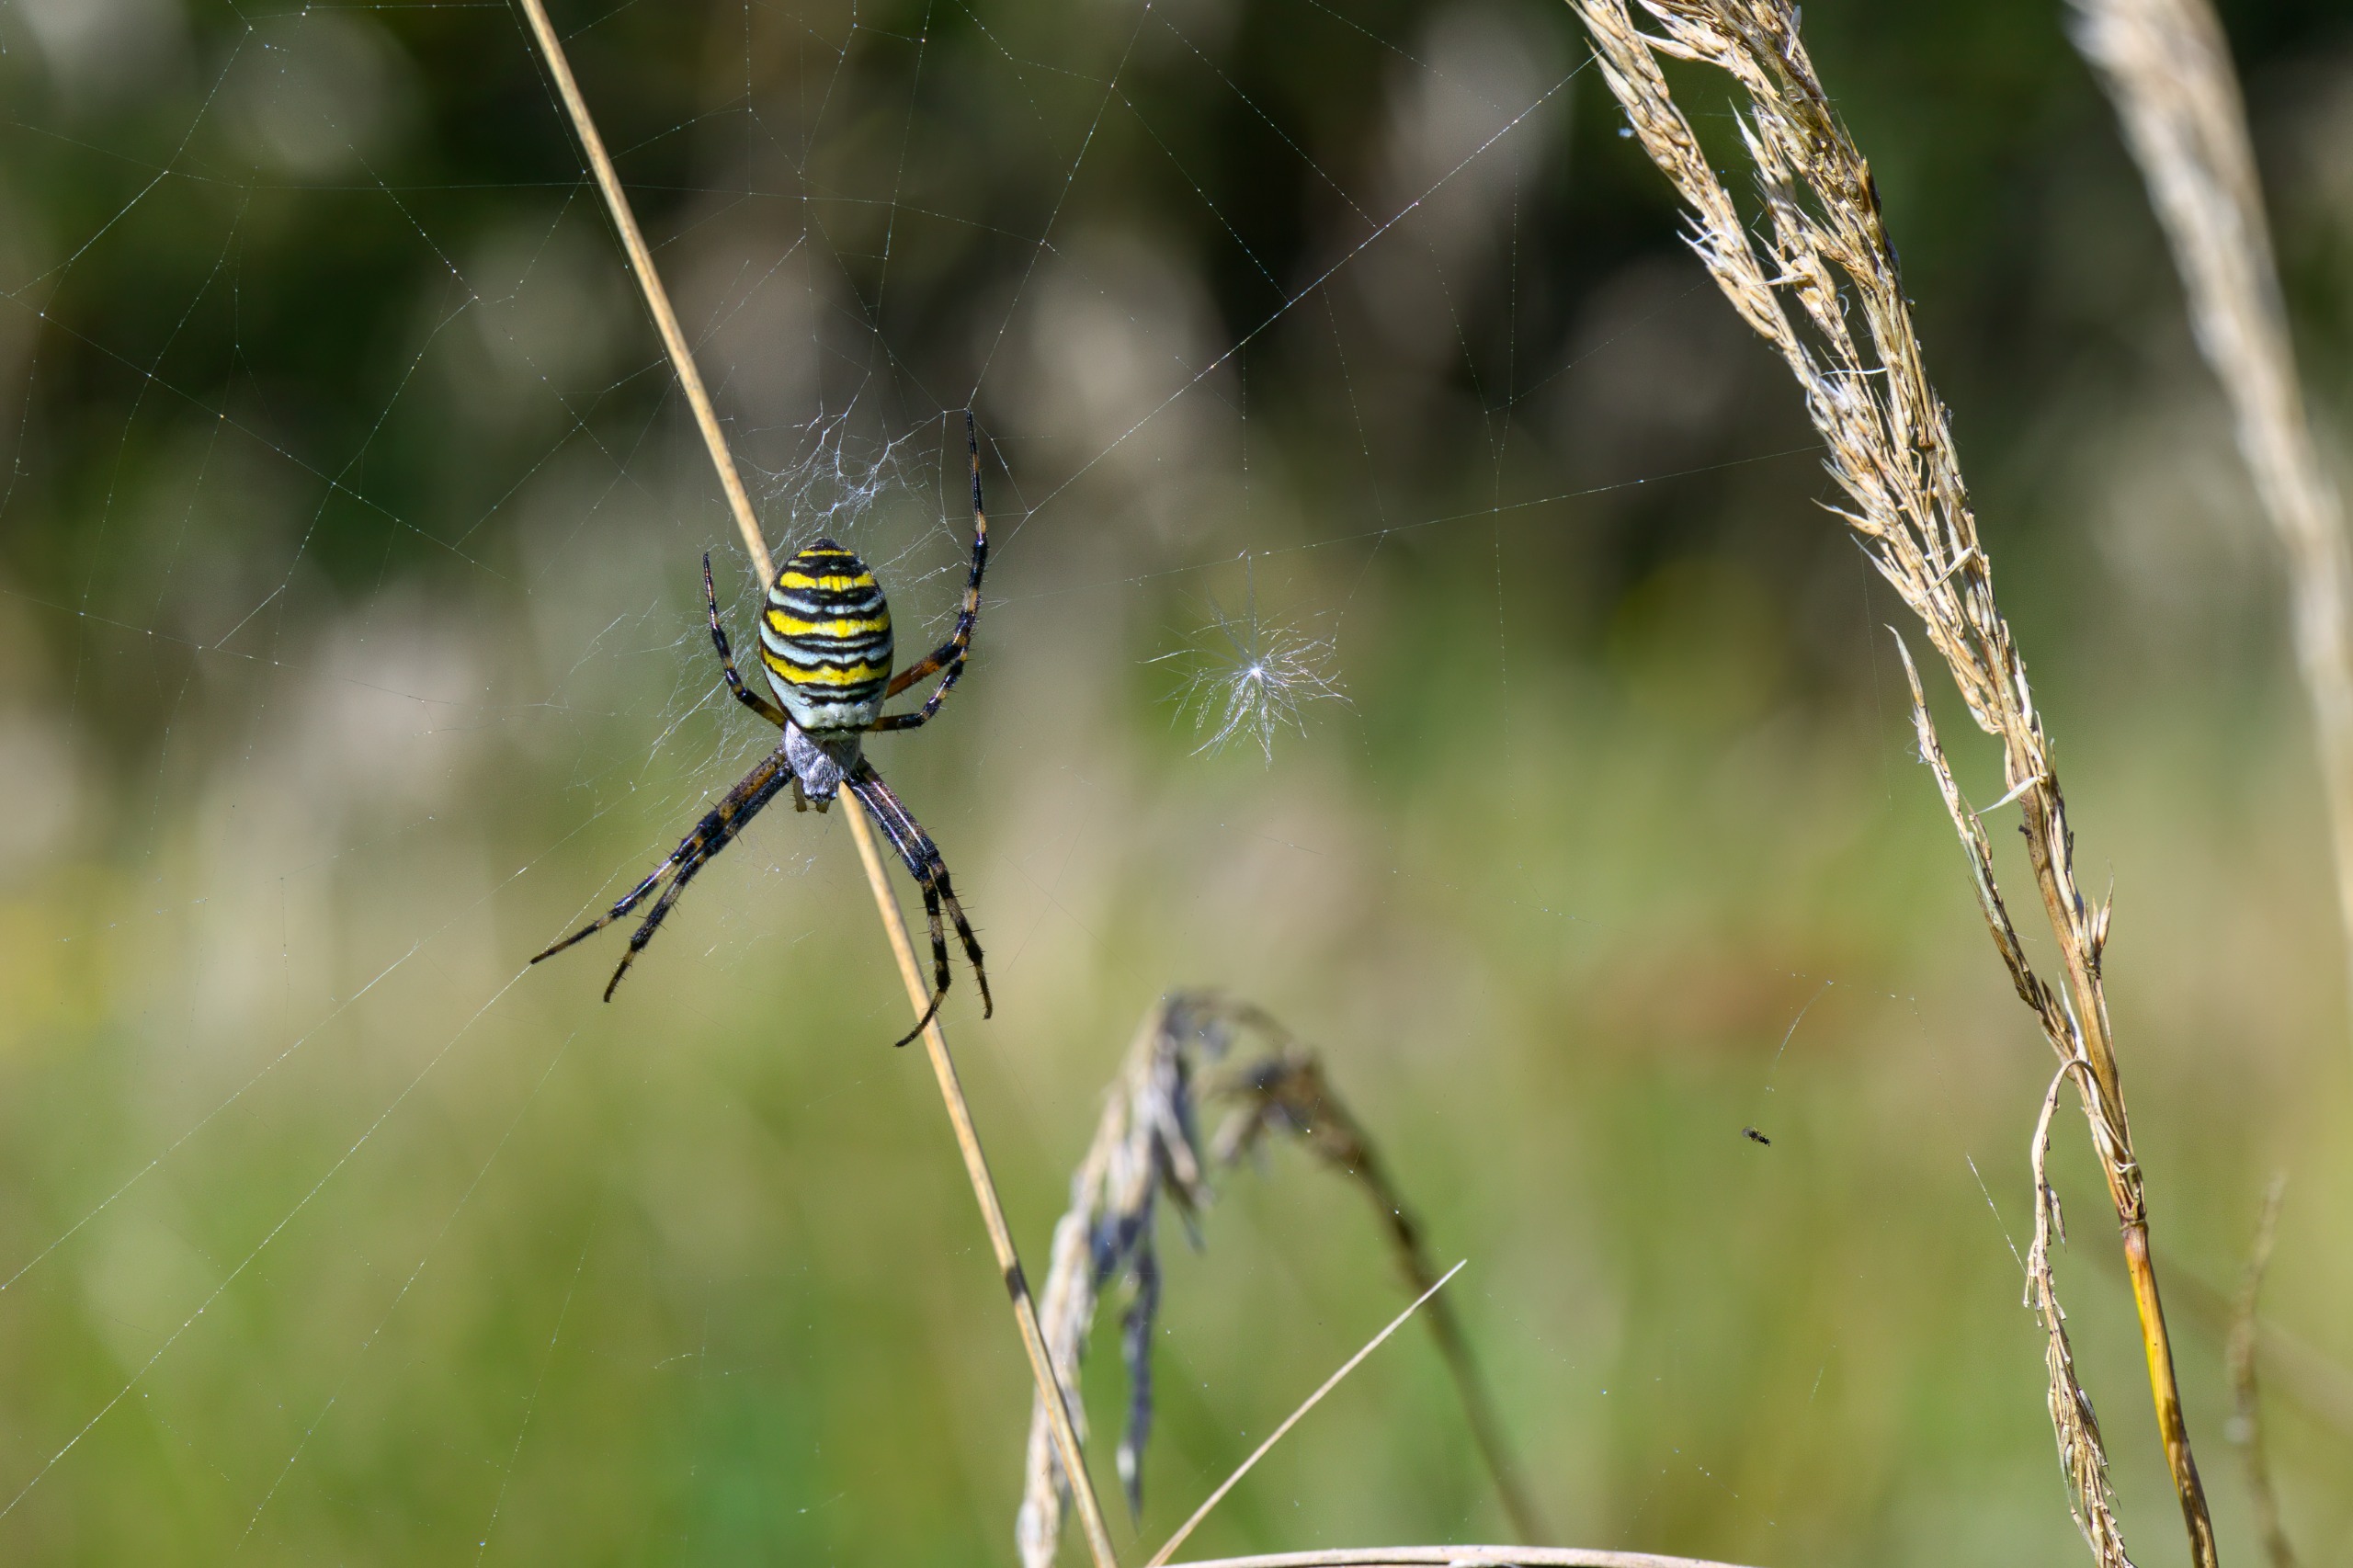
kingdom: Animalia
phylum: Arthropoda
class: Arachnida
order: Araneae
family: Araneidae
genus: Argiope
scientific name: Argiope bruennichi
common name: Hvepseedderkop
